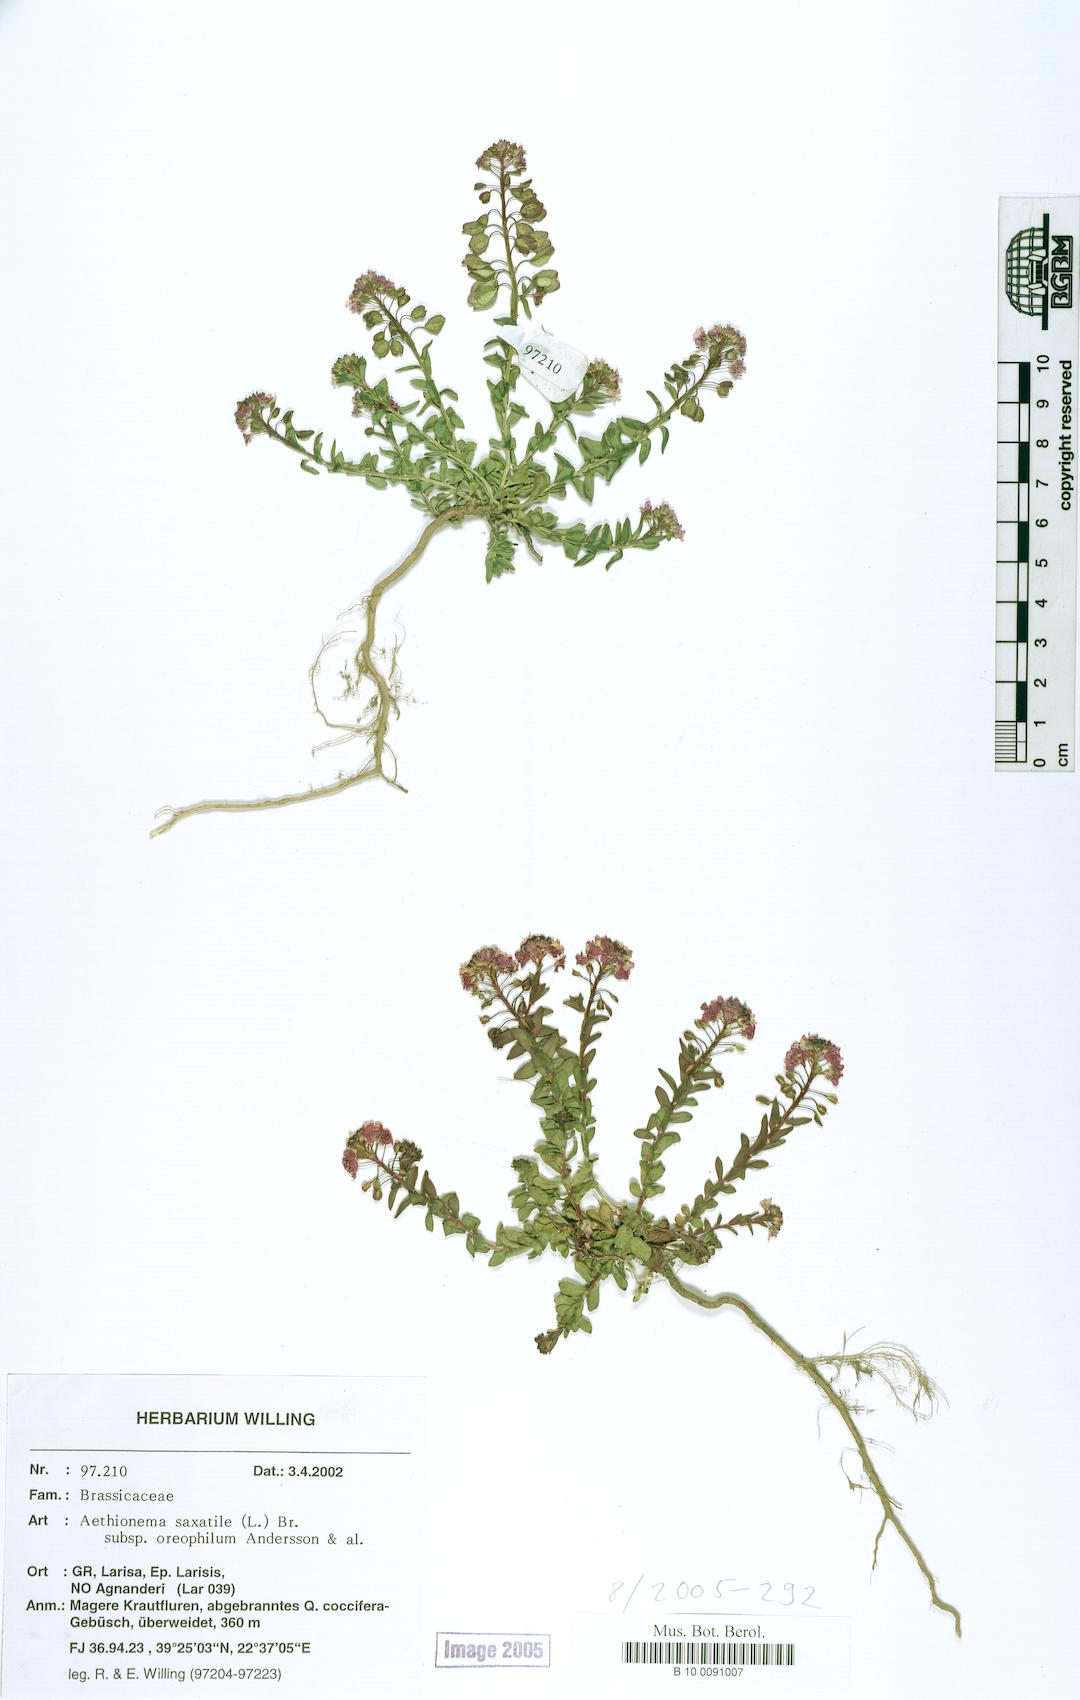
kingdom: Plantae
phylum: Tracheophyta
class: Magnoliopsida
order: Brassicales
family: Brassicaceae
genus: Aethionema
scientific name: Aethionema saxatile
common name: Burnt candytuft
